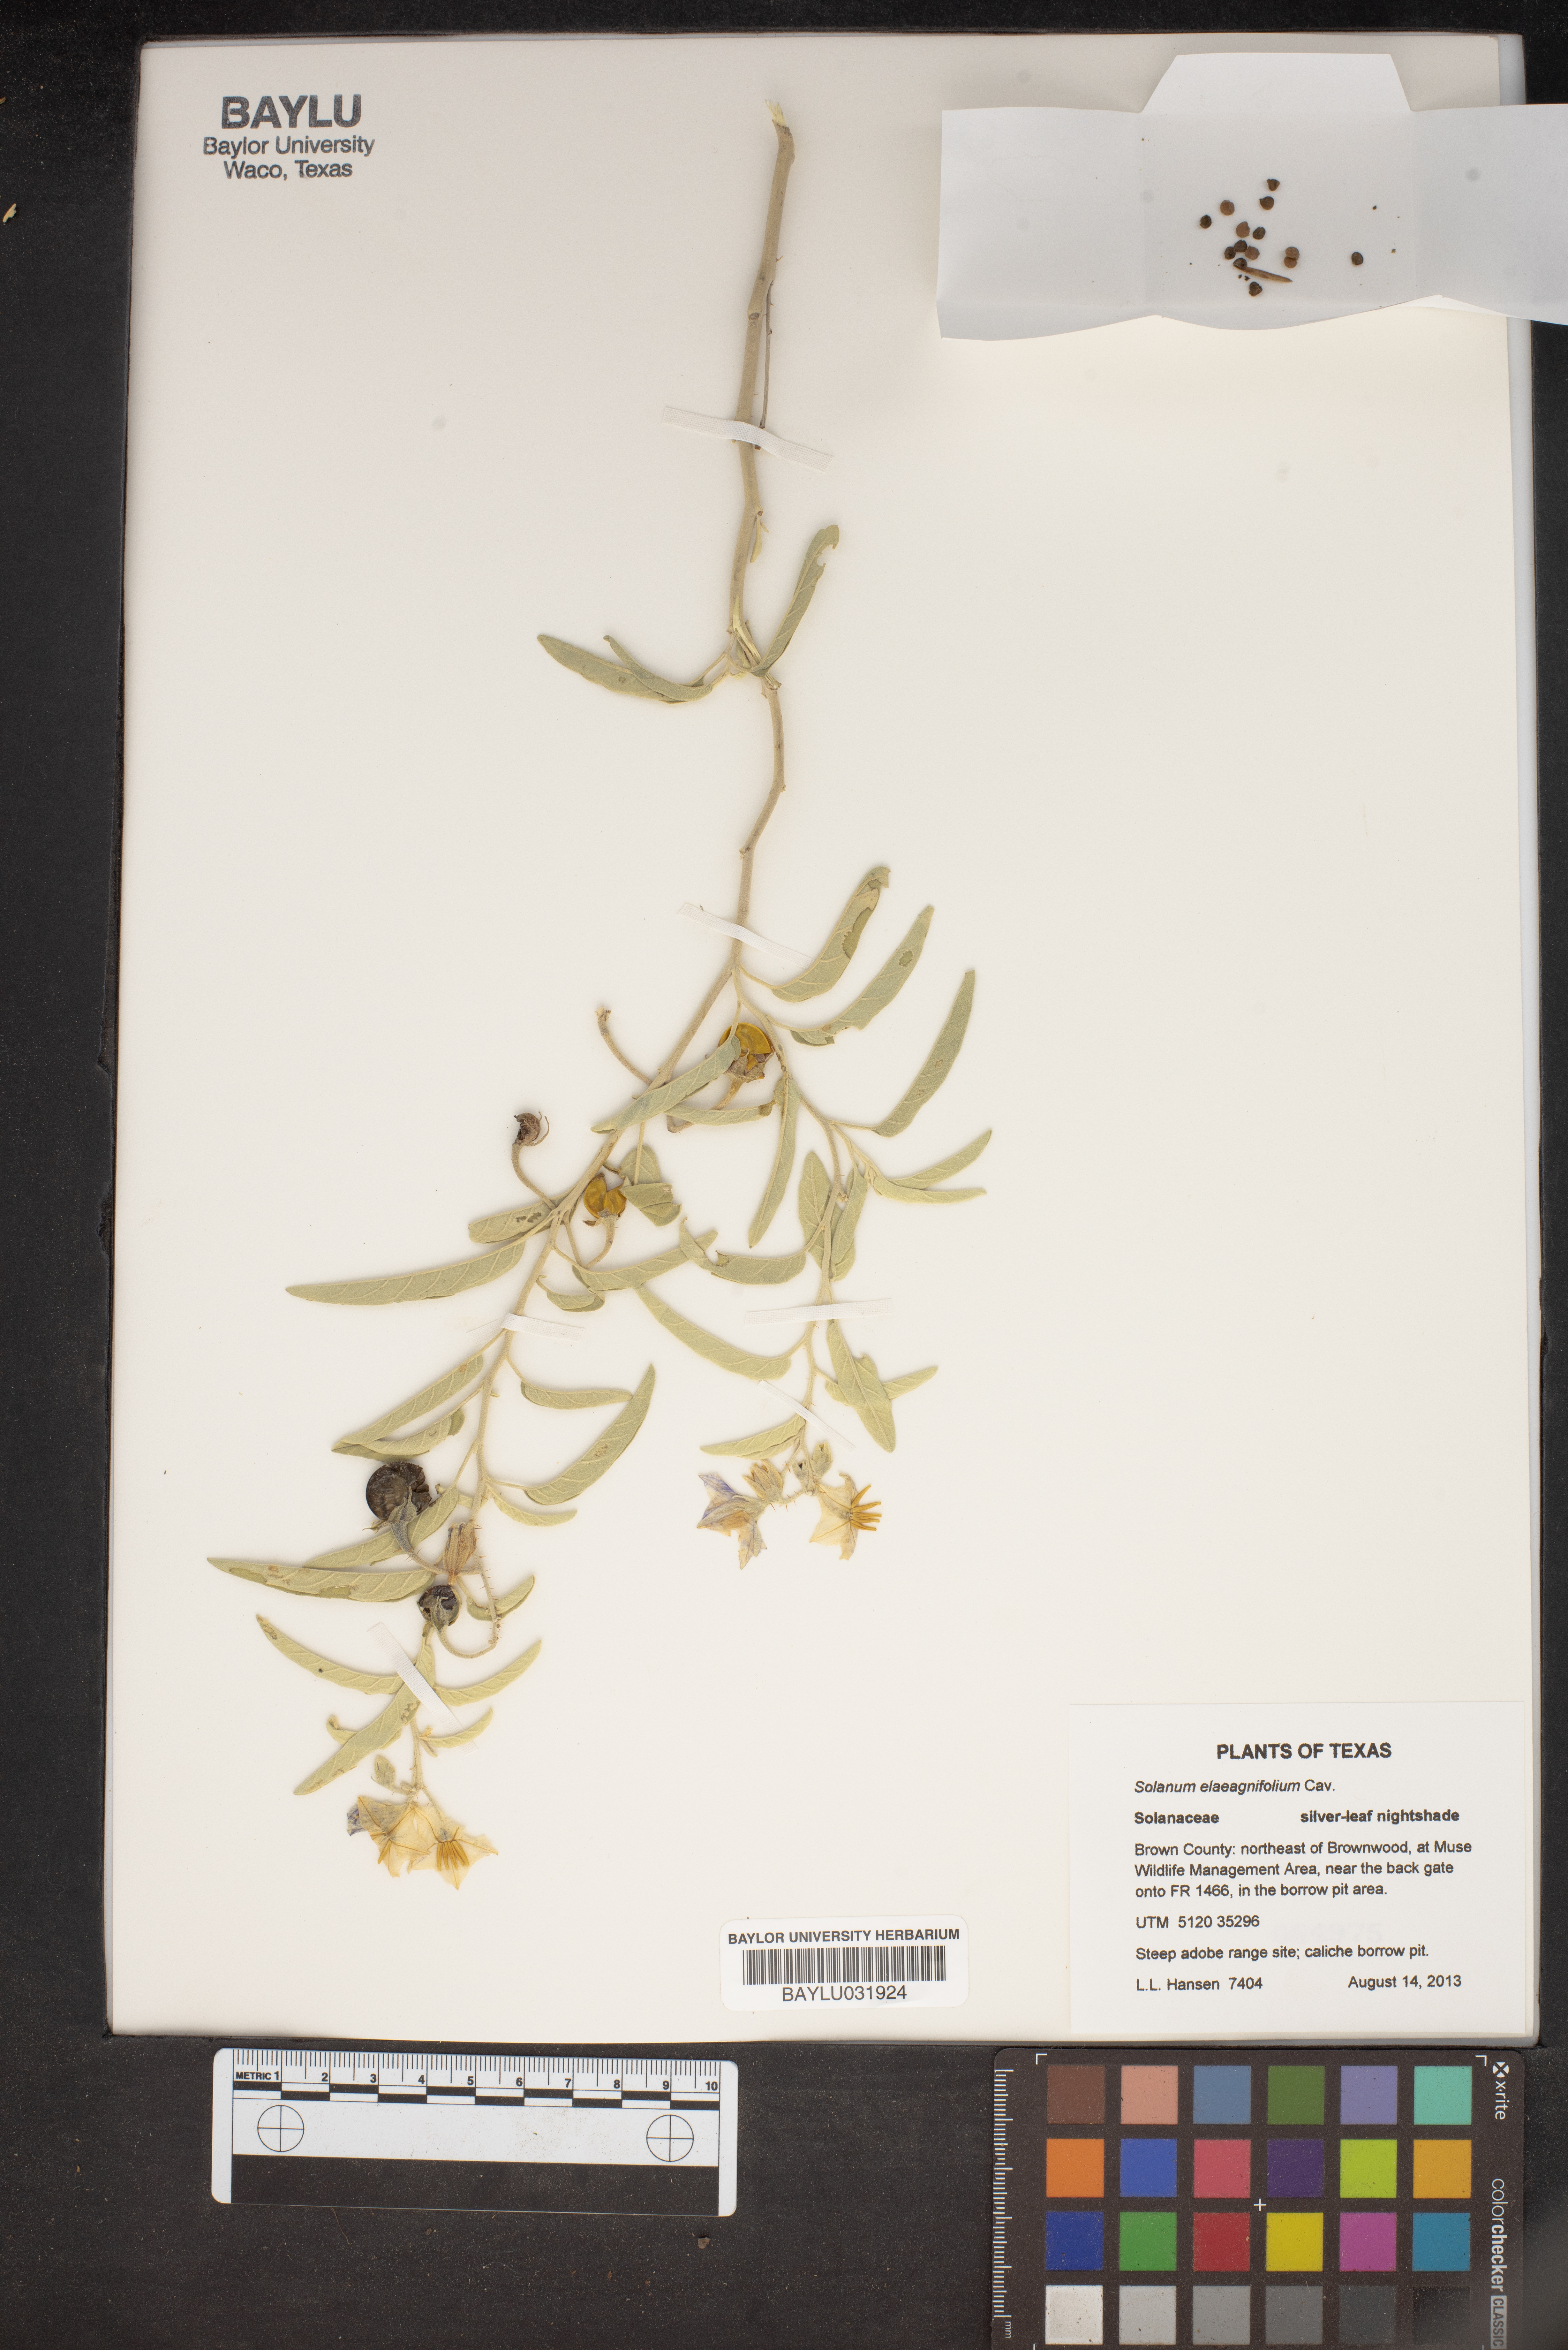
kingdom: Plantae
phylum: Tracheophyta
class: Magnoliopsida
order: Solanales
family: Solanaceae
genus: Solanum
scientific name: Solanum elaeagnifolium
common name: Silverleaf nightshade
